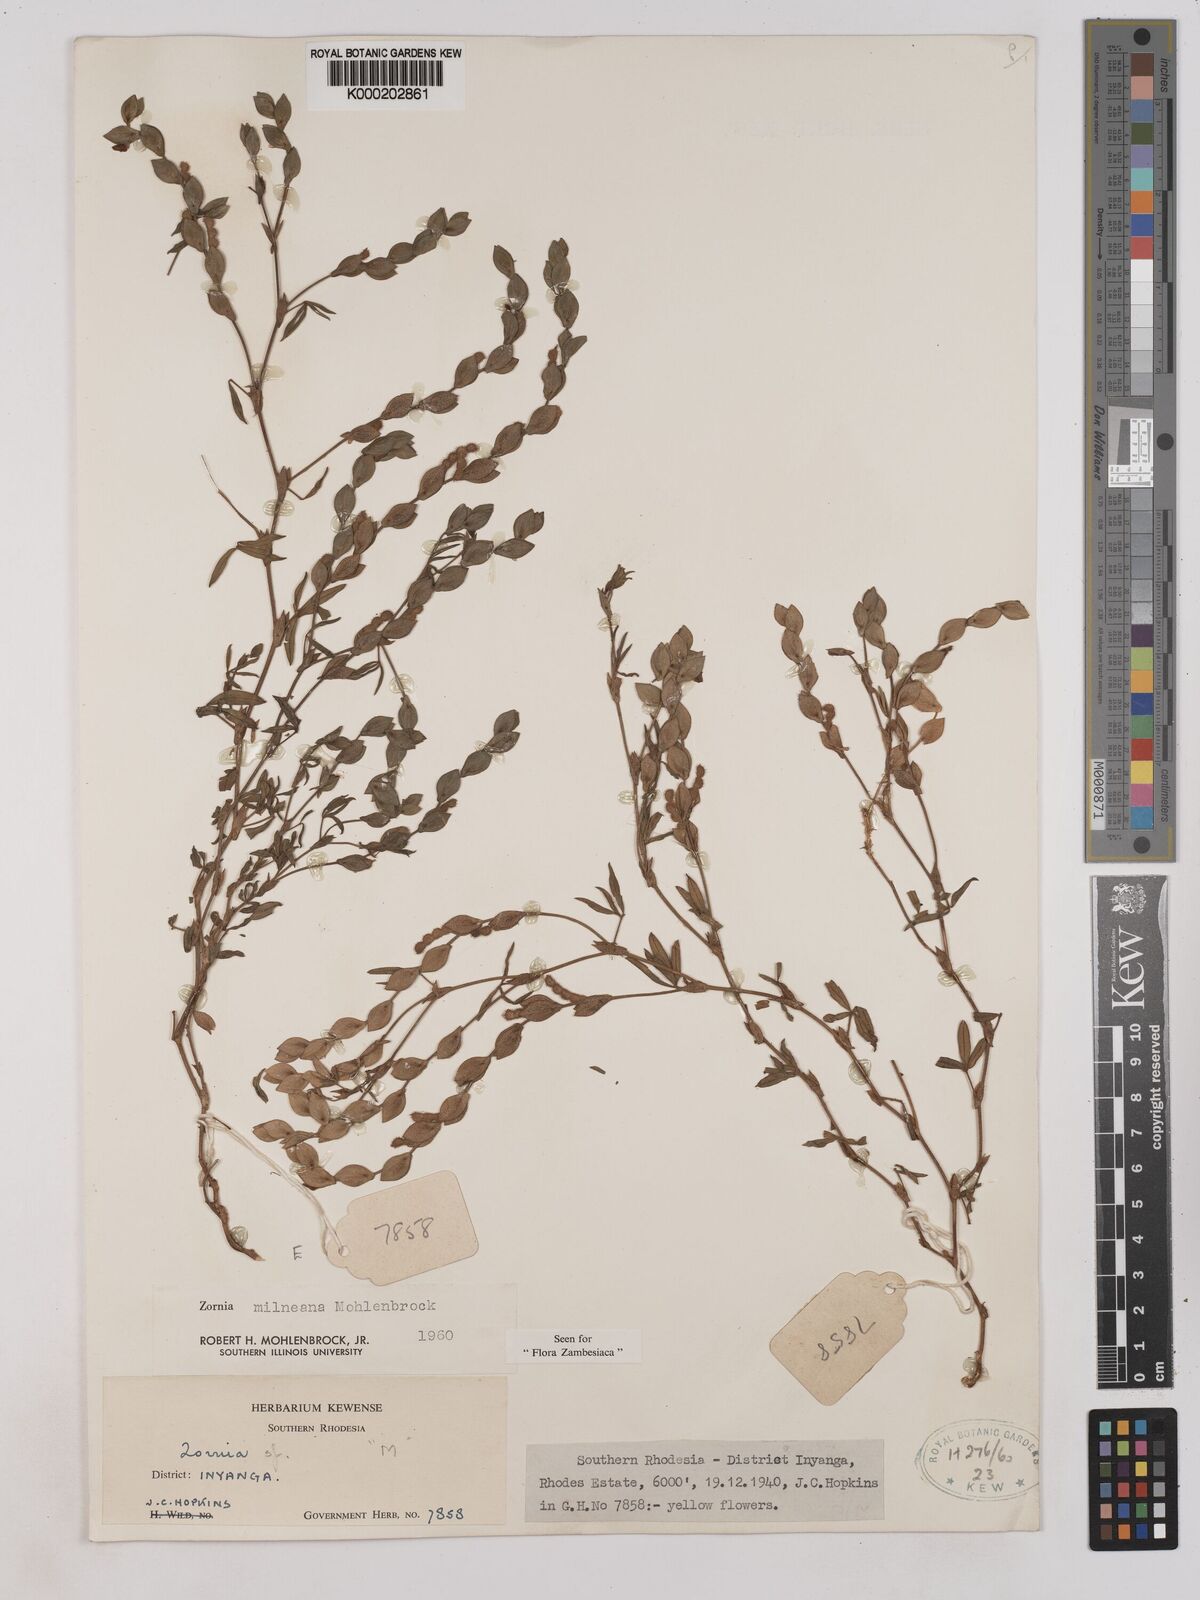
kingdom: Plantae
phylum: Tracheophyta
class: Magnoliopsida
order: Fabales
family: Fabaceae
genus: Zornia
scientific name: Zornia milneana
